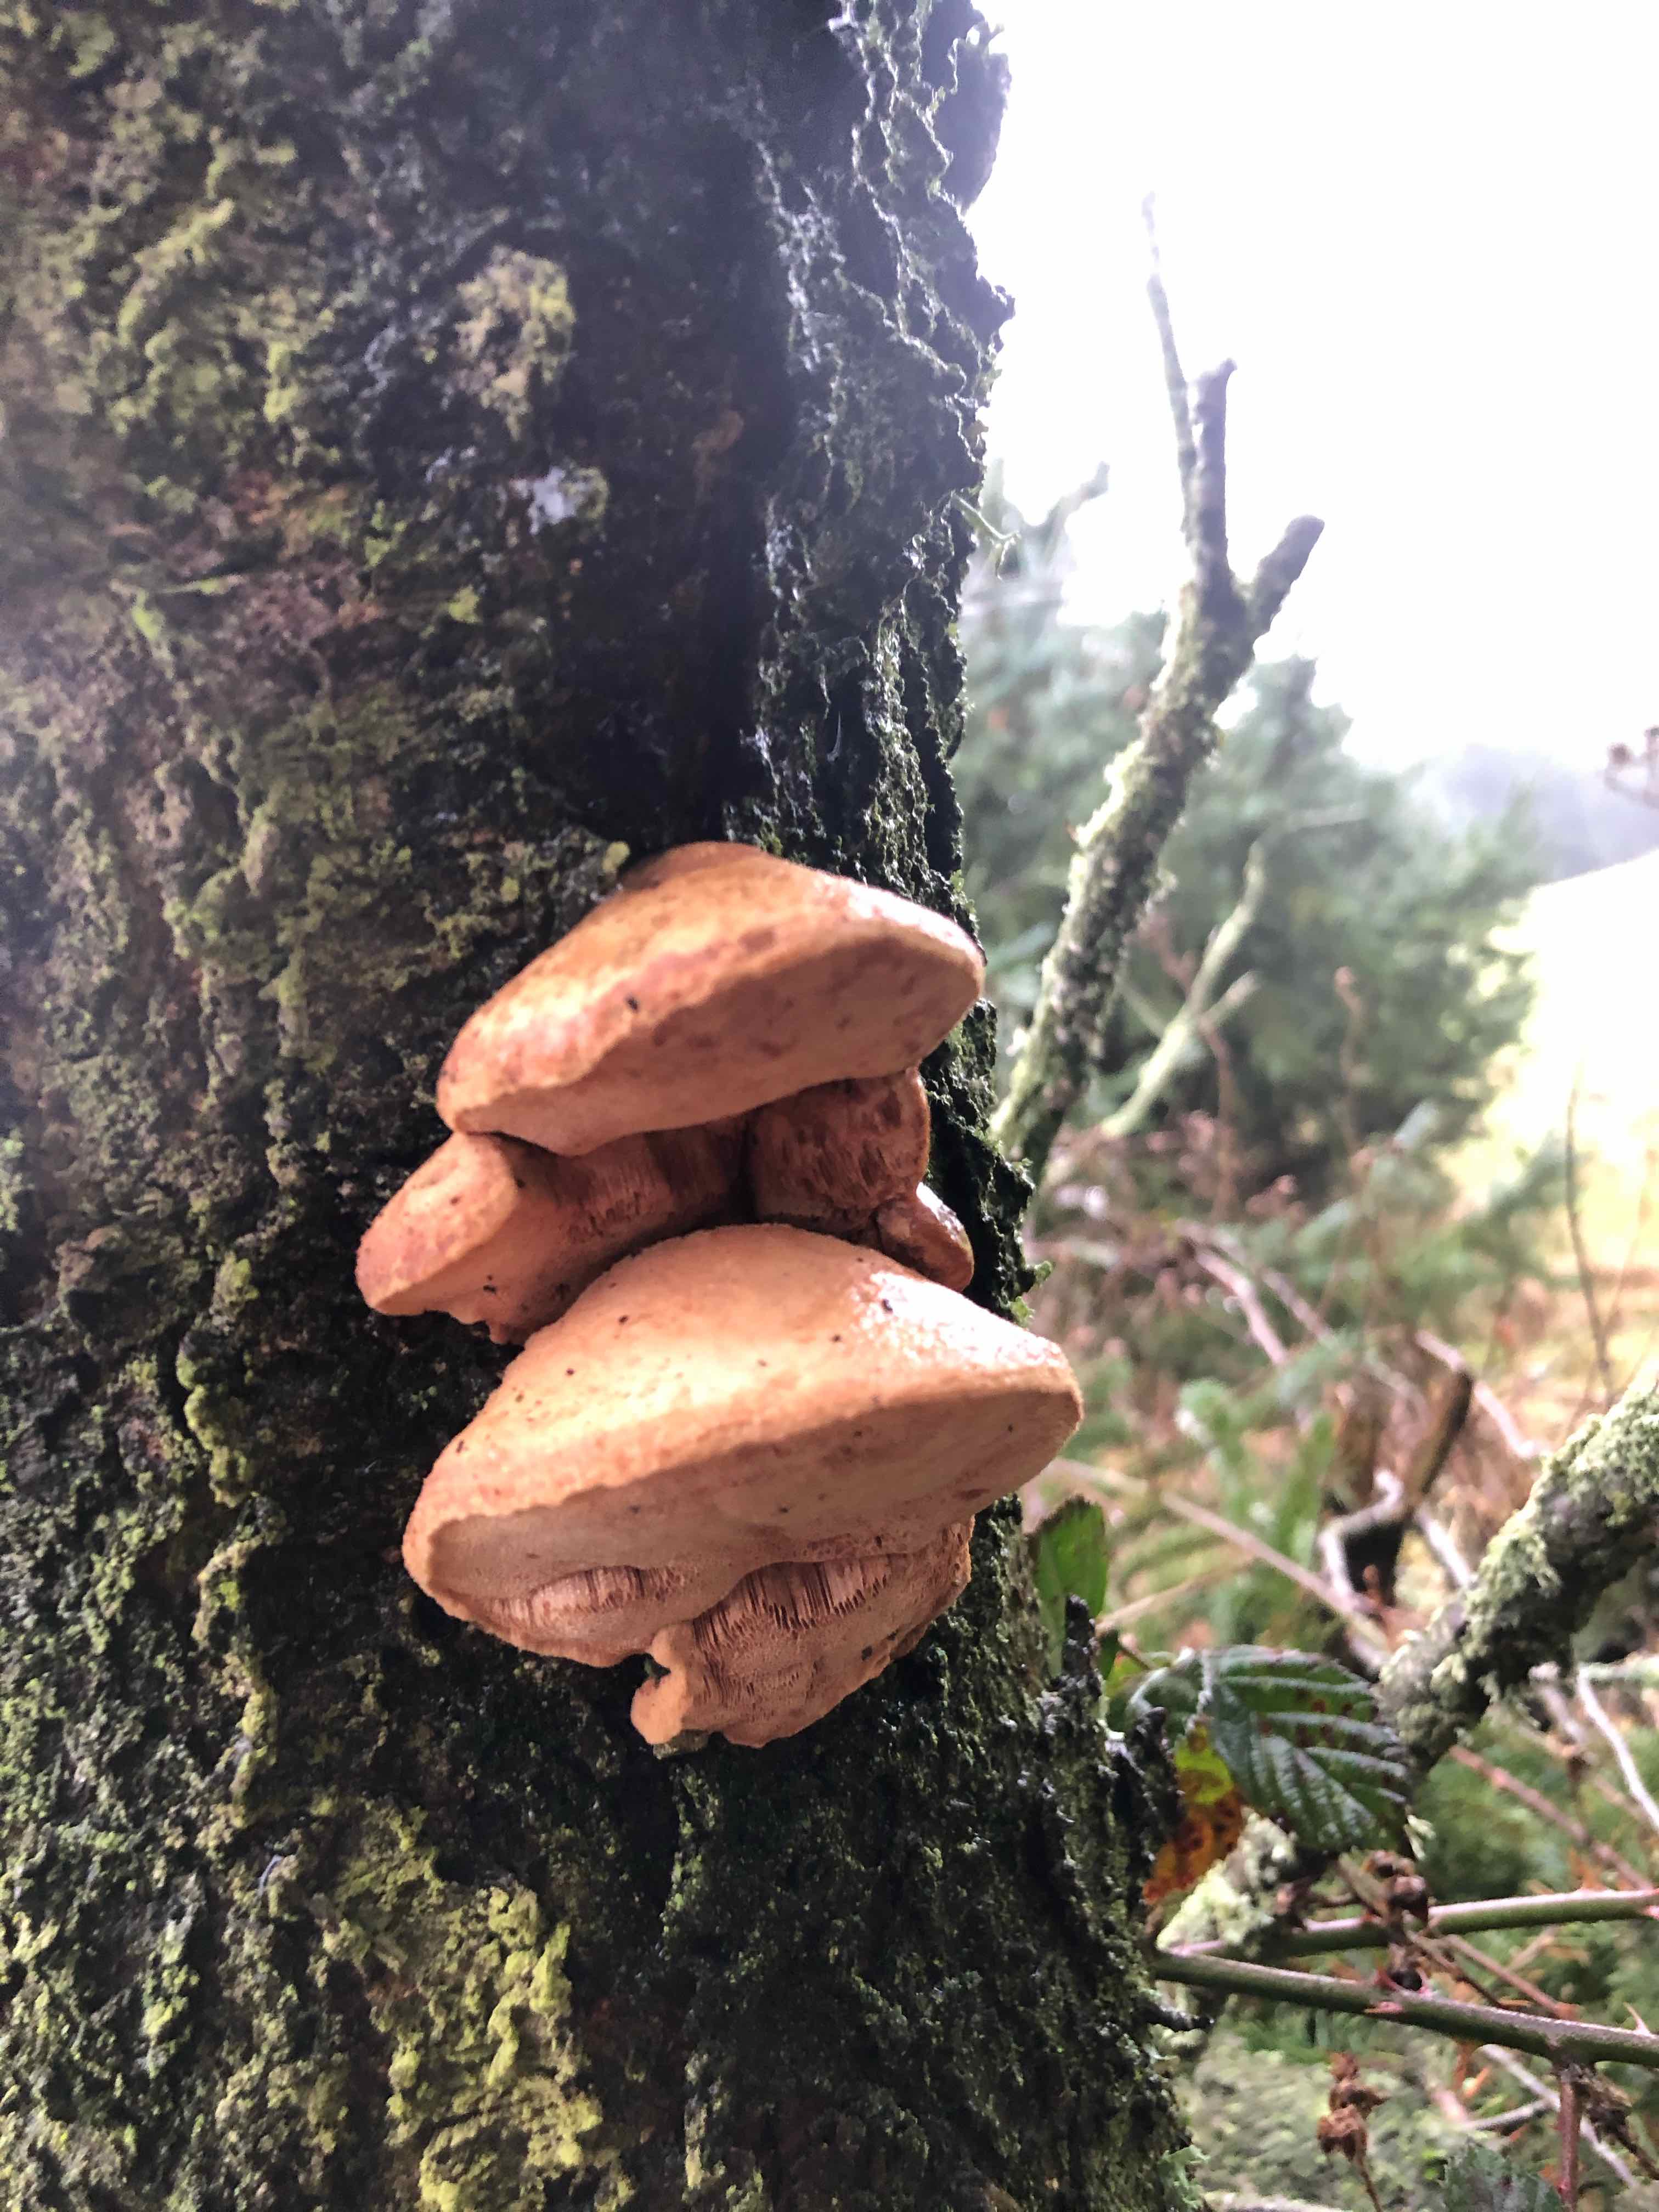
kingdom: Fungi
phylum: Basidiomycota
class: Agaricomycetes
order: Polyporales
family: Phanerochaetaceae
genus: Hapalopilus
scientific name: Hapalopilus rutilans
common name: rødlig okkerporesvamp
